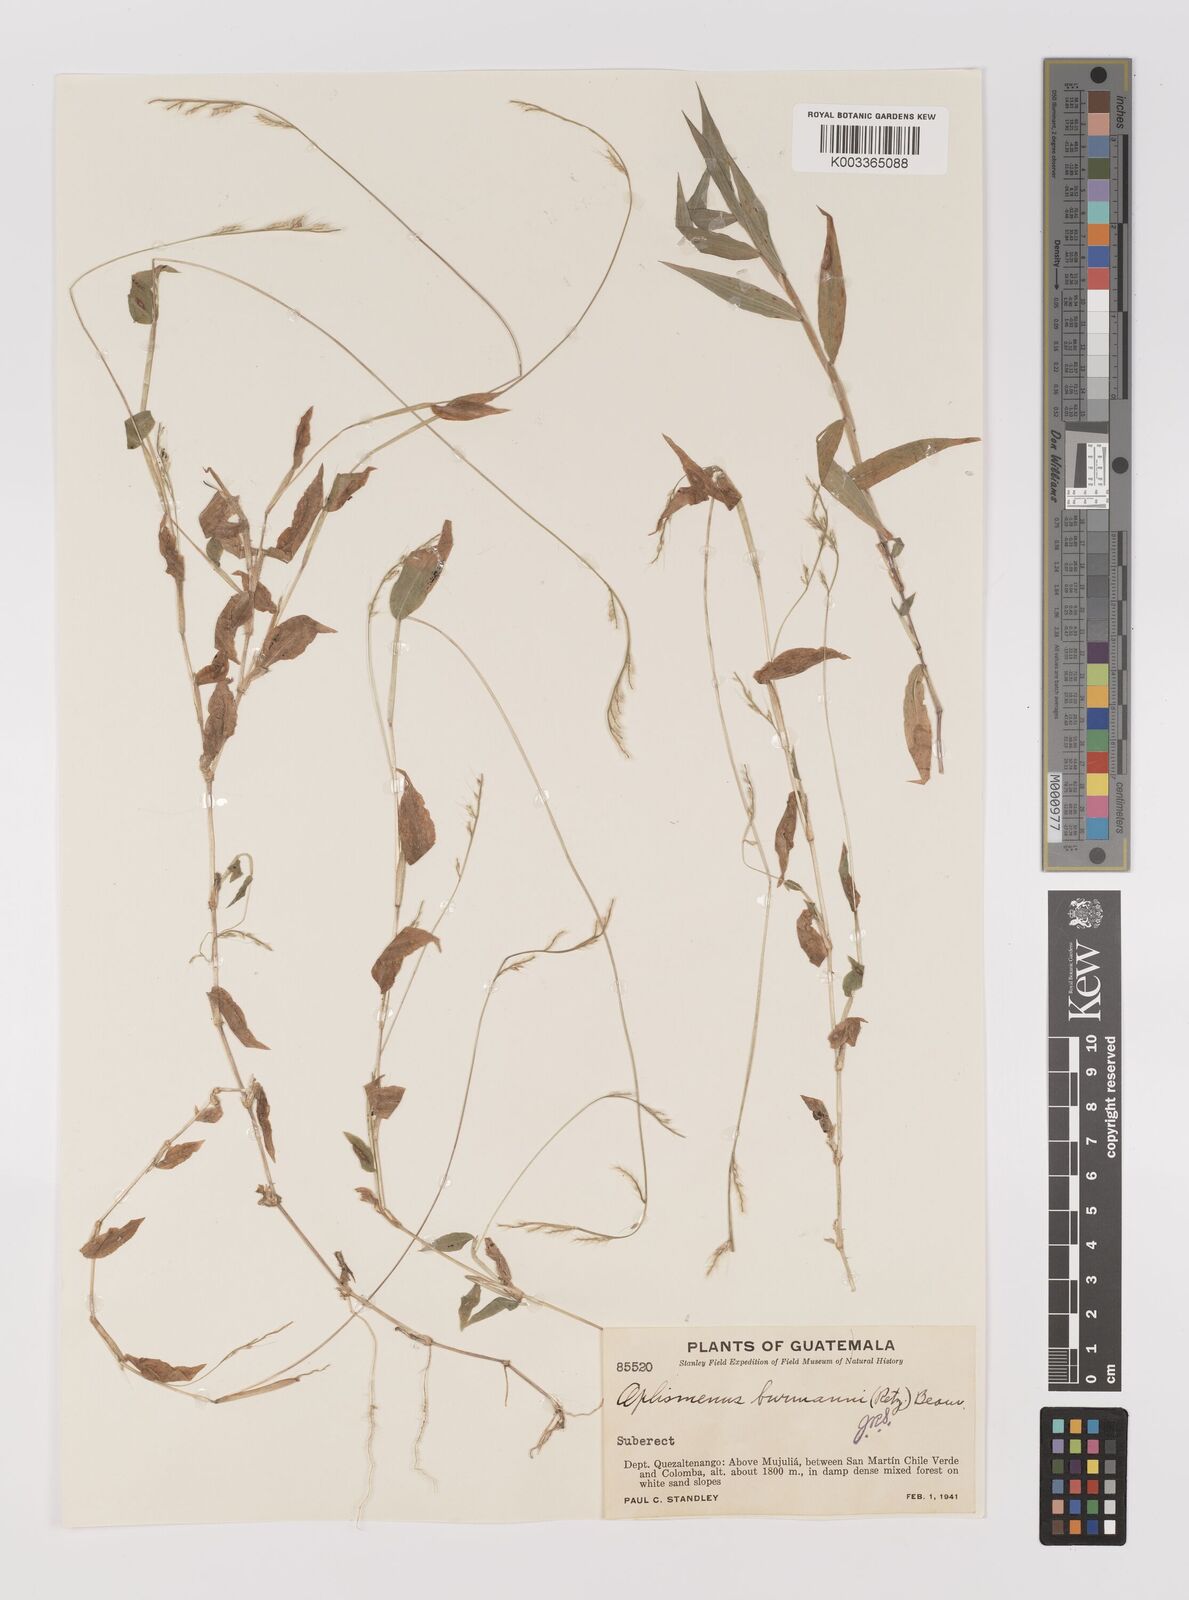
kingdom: Plantae
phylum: Tracheophyta
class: Liliopsida
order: Poales
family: Poaceae
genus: Oplismenus
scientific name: Oplismenus burmanni
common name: Burmann's basketgrass
